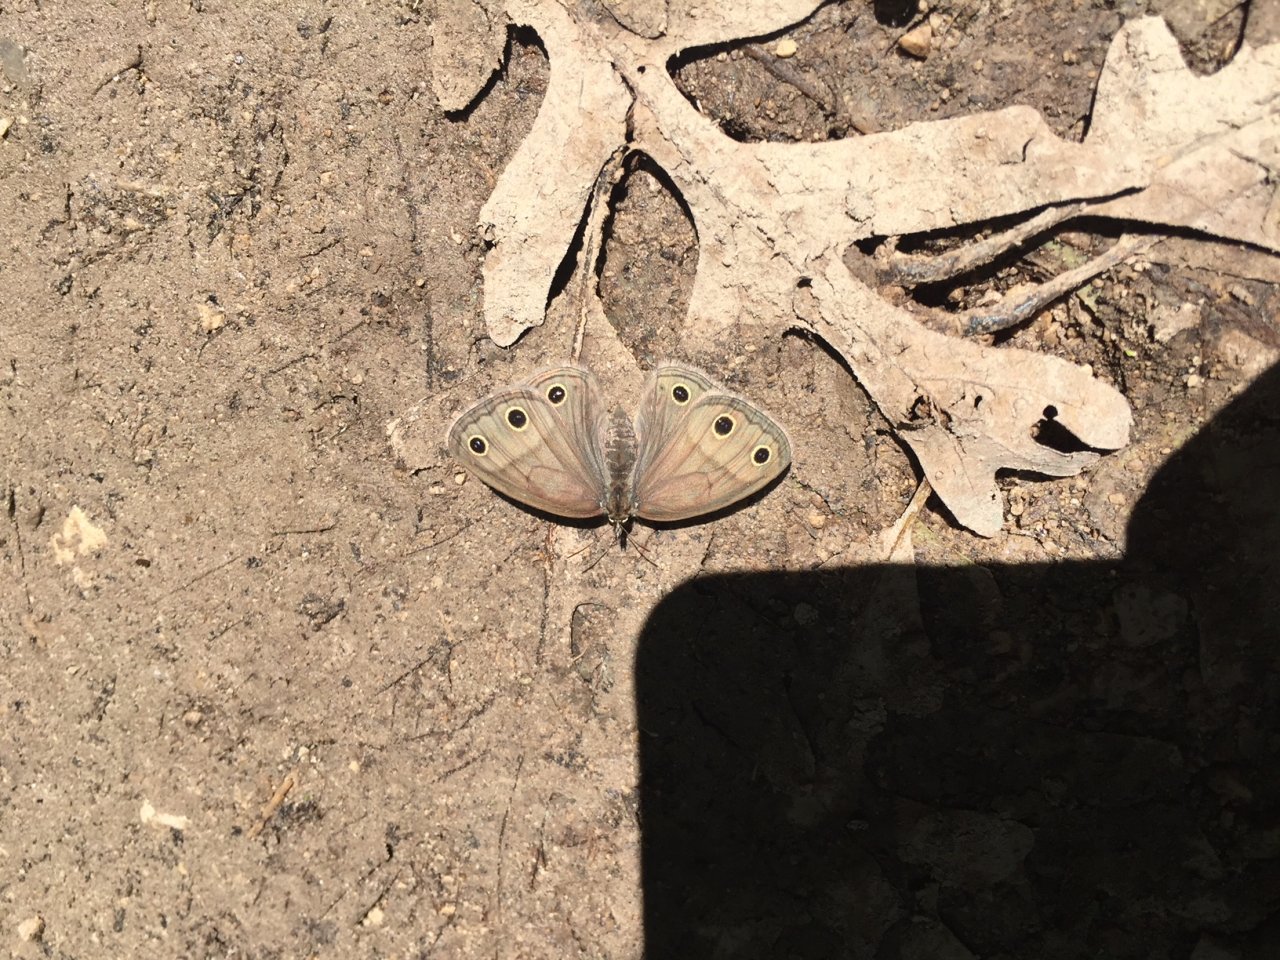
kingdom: Animalia
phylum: Arthropoda
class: Insecta
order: Lepidoptera
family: Nymphalidae
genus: Euptychia
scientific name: Euptychia cymela
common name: Little Wood Satyr
